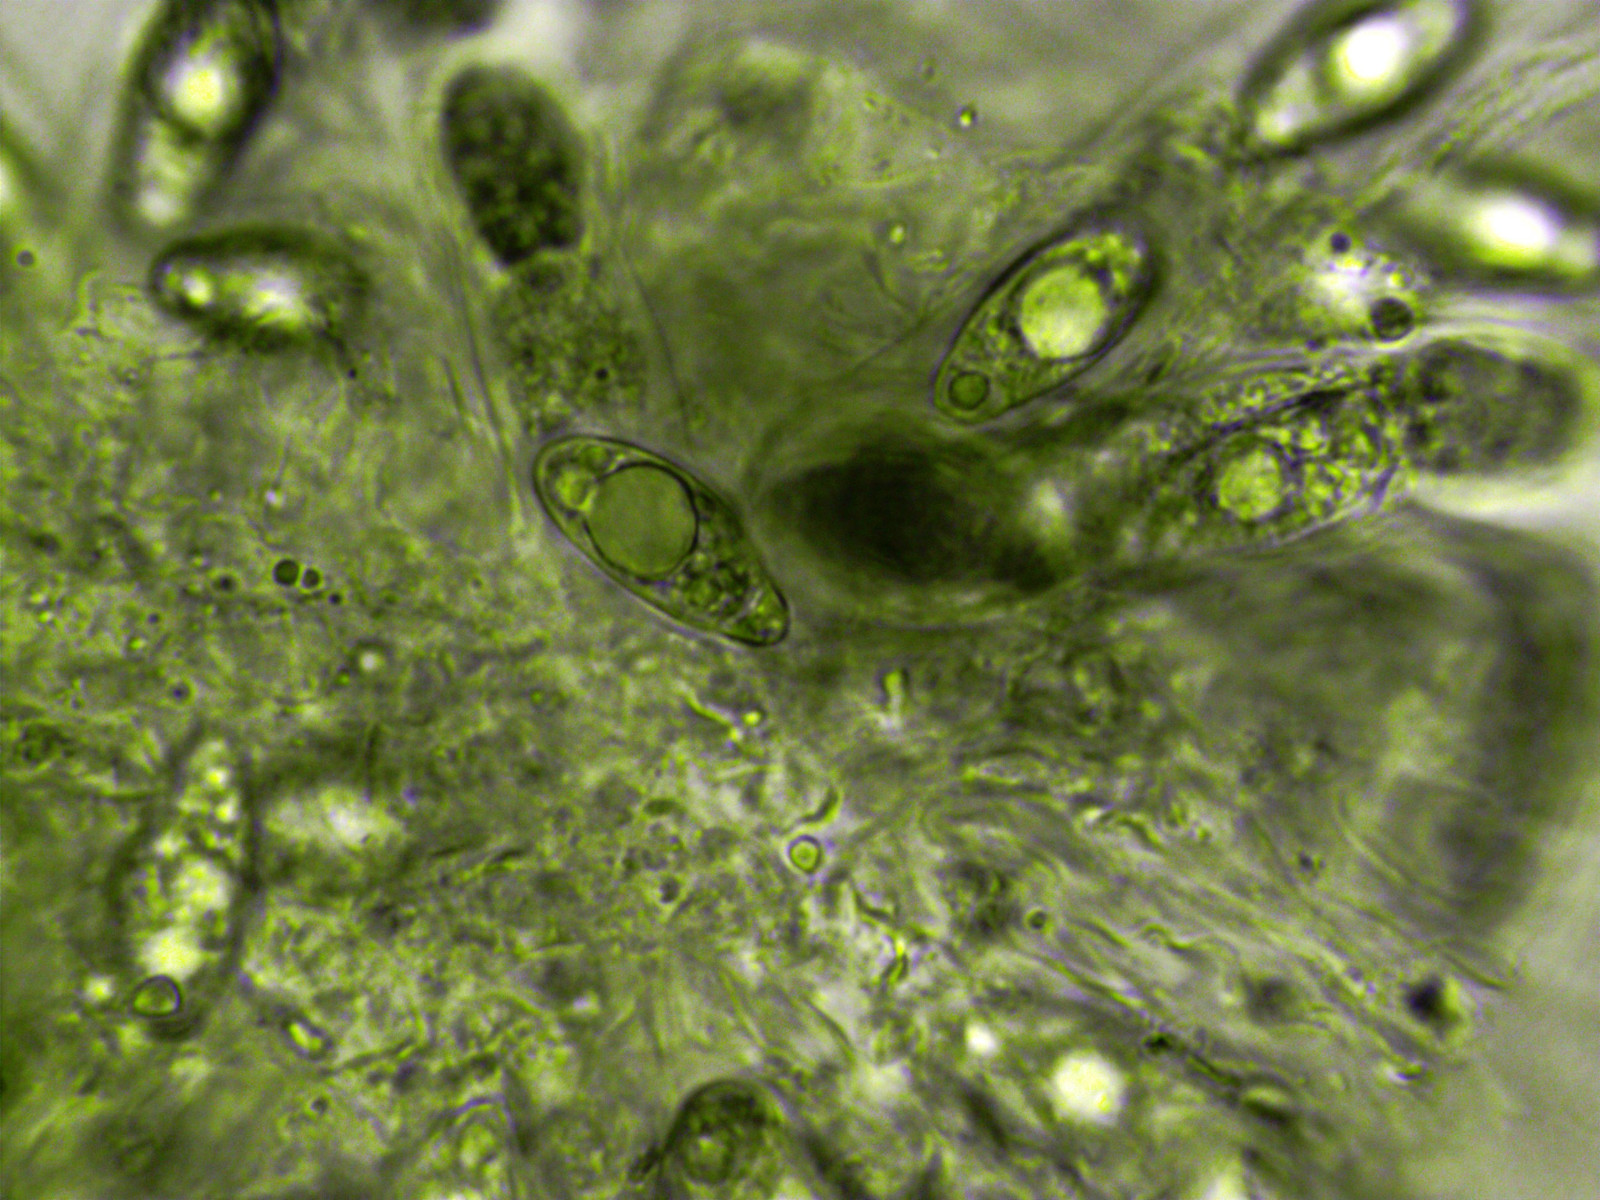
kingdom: Fungi
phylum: Ascomycota
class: Sordariomycetes
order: Xylariales
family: Pseudomassariaceae
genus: Pseudomassaria
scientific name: Pseudomassaria sepincoliformis
